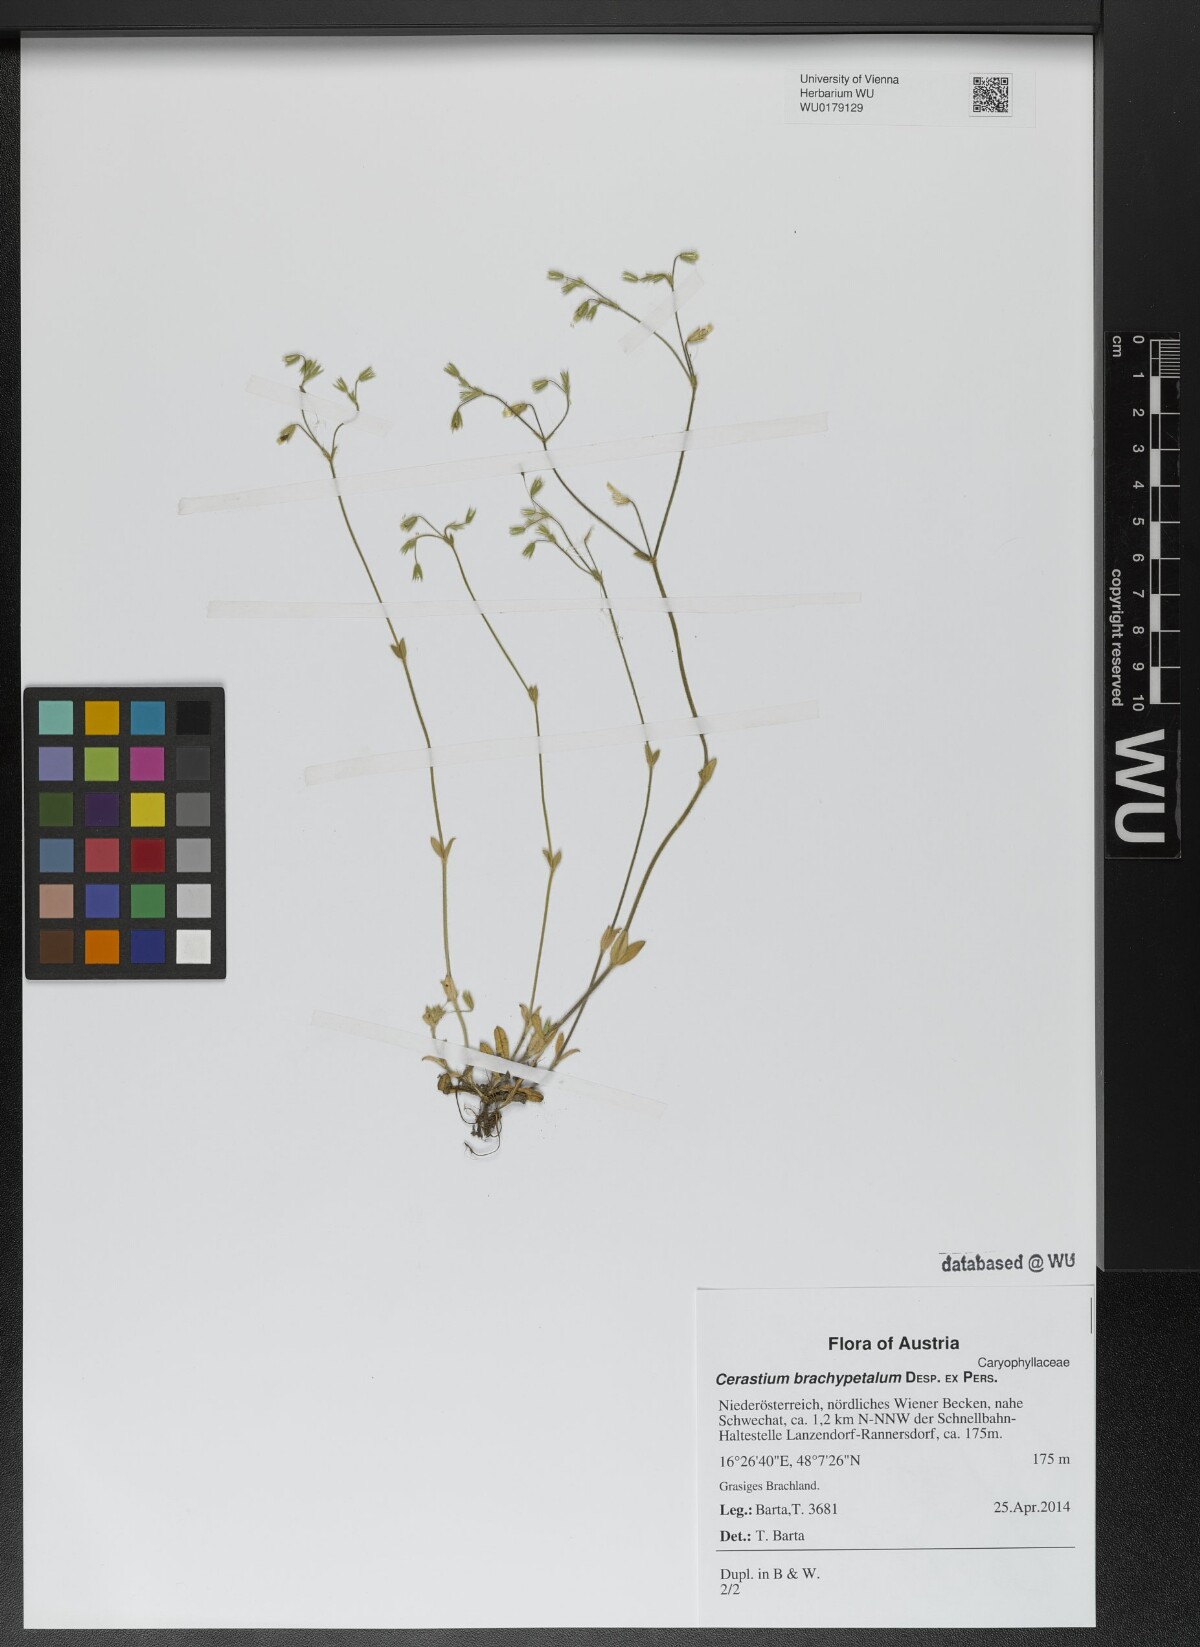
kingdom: Plantae
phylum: Tracheophyta
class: Magnoliopsida
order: Caryophyllales
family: Caryophyllaceae
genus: Cerastium
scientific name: Cerastium brachypetalum
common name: Grey mouse-ear
